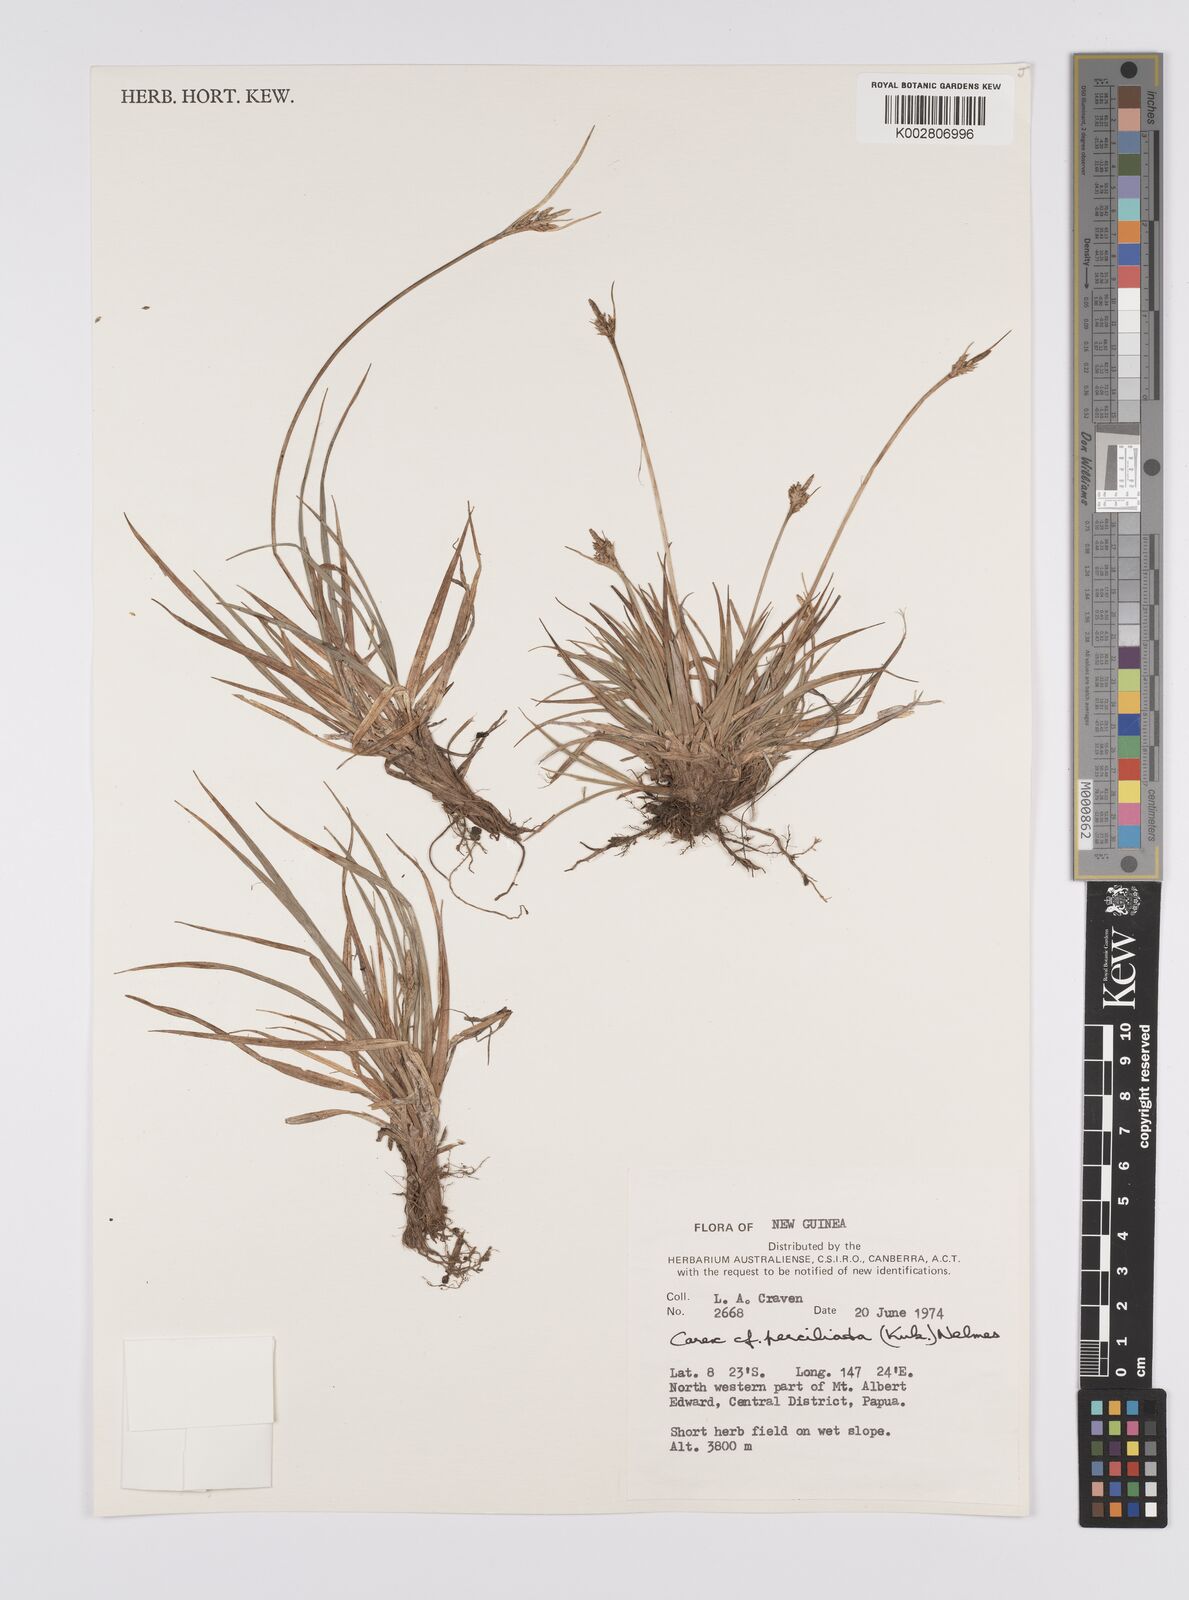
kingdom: Plantae
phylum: Tracheophyta
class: Liliopsida
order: Poales
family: Cyperaceae
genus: Carex
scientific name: Carex breviculmis
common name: Asian shortstem sedge
